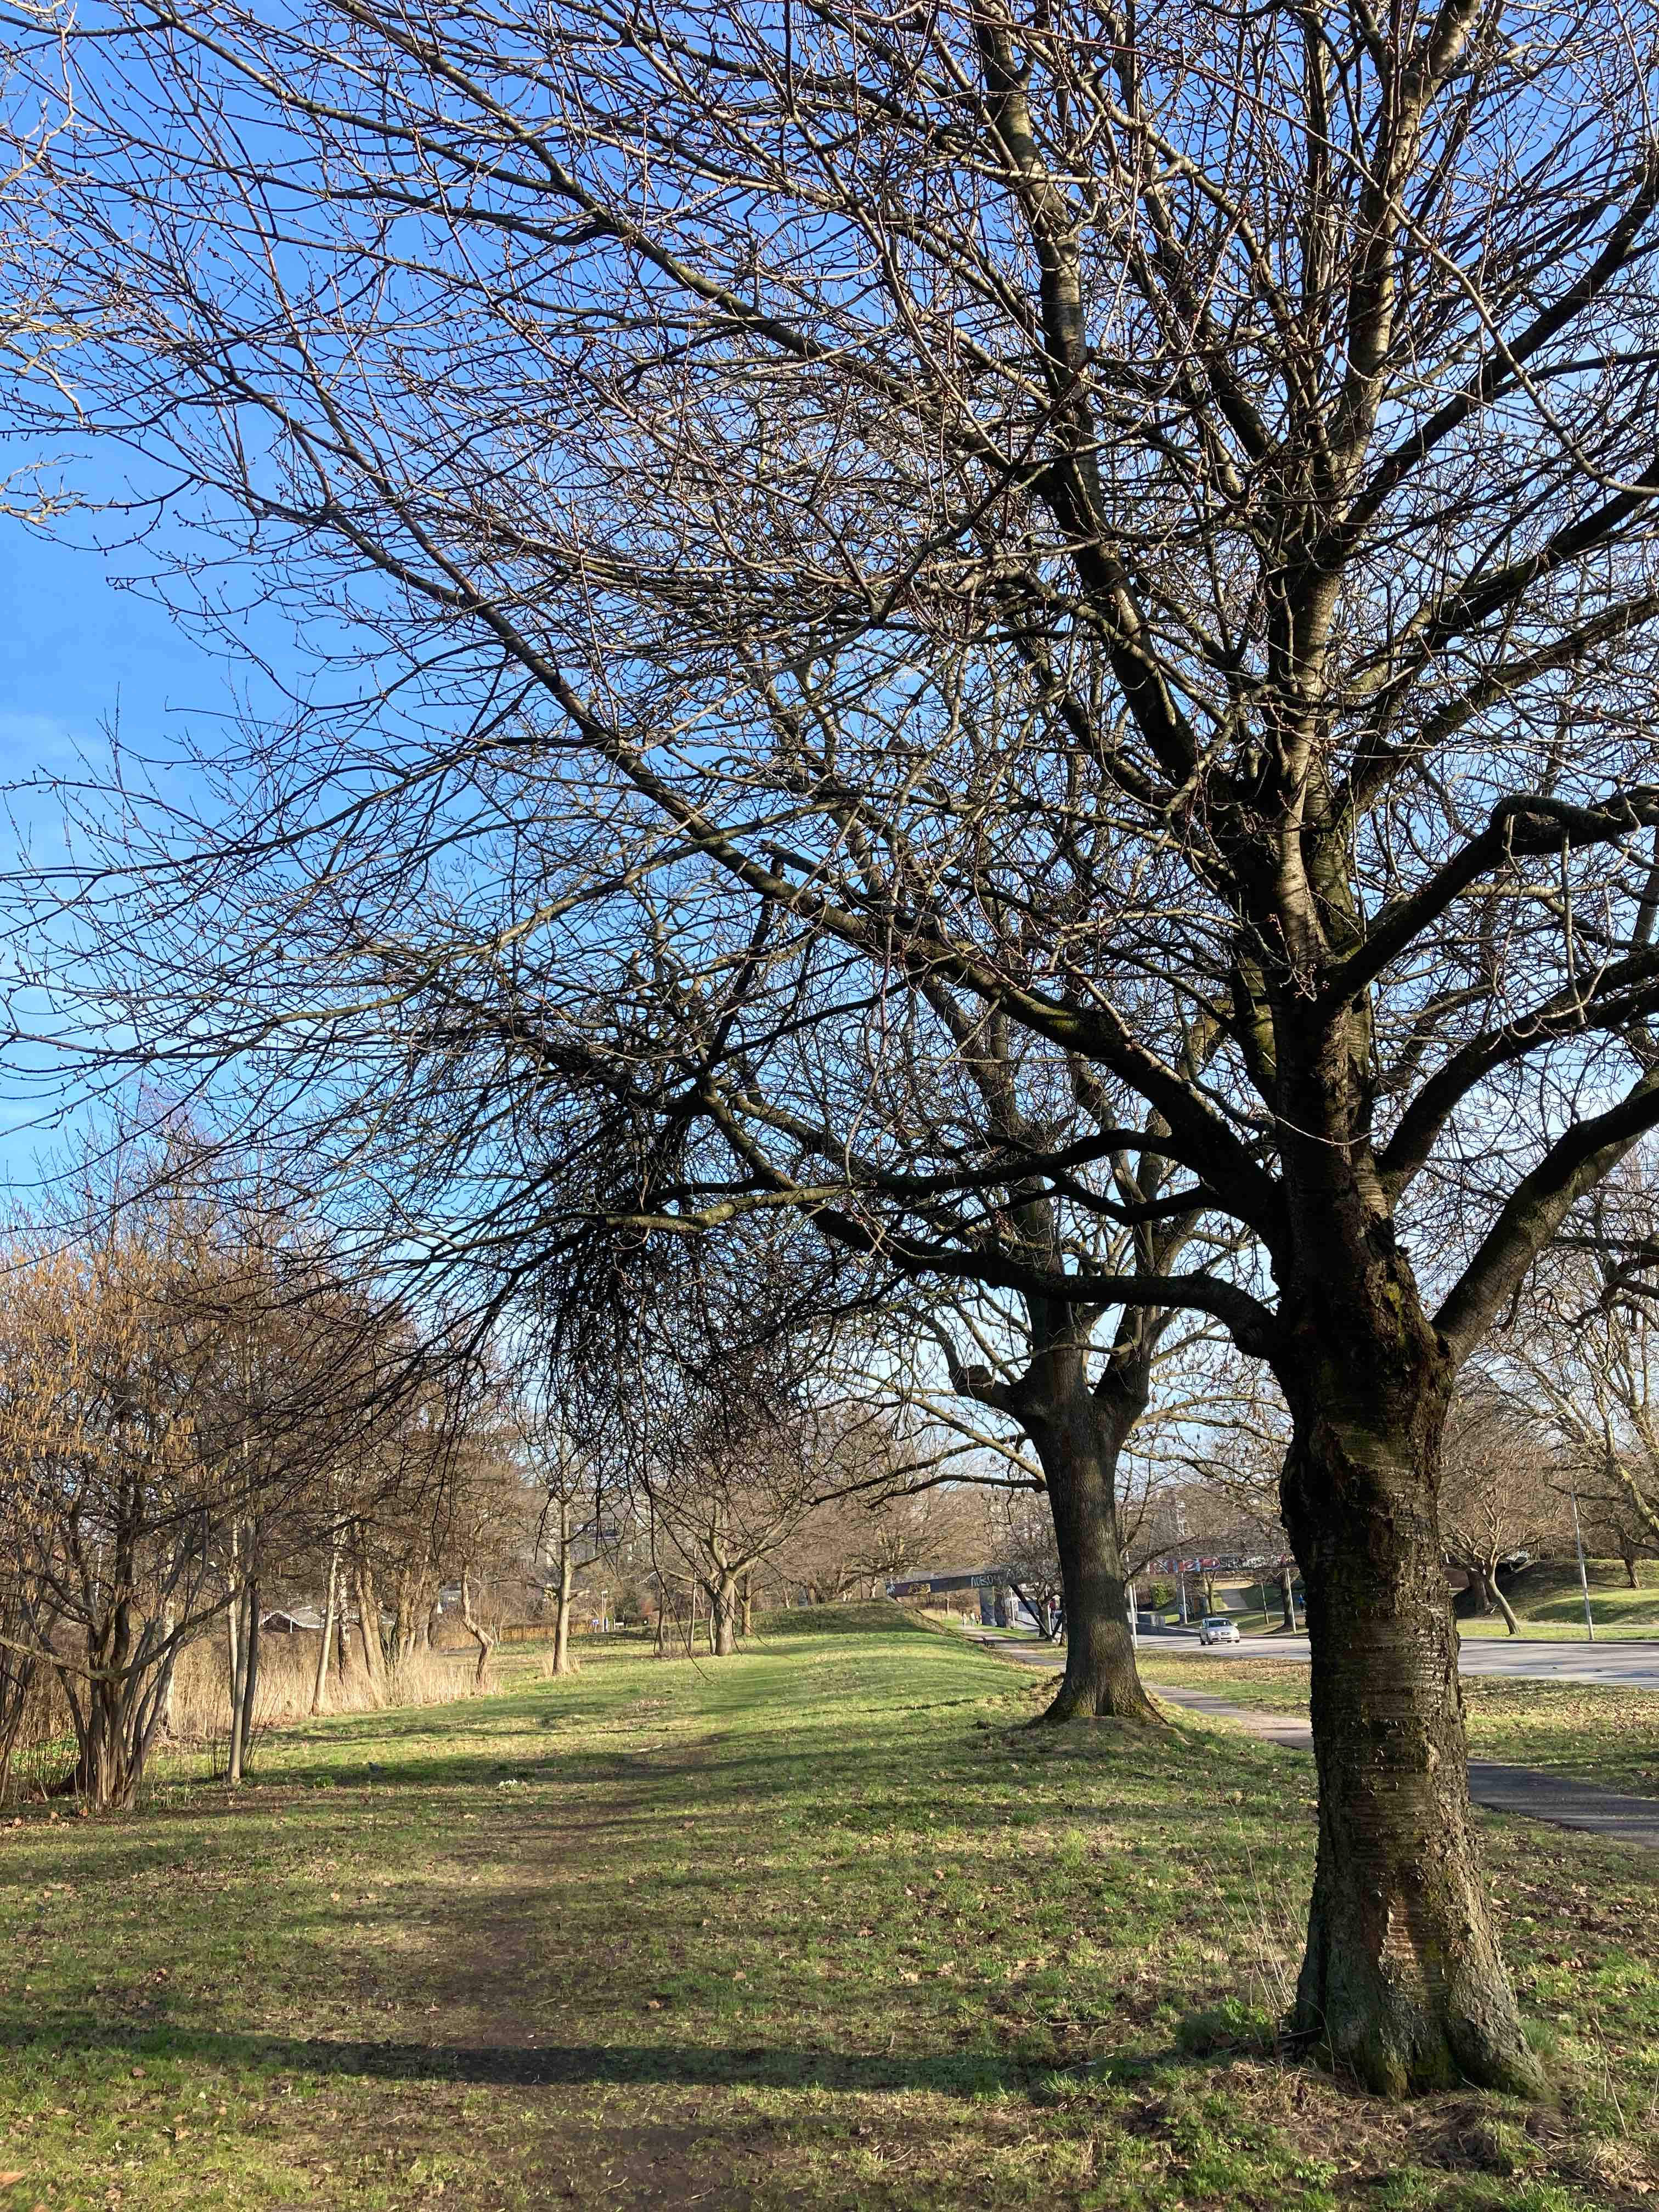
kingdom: Fungi
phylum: Ascomycota
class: Taphrinomycetes
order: Taphrinales
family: Taphrinaceae
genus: Taphrina
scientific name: Taphrina wiesneri
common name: Cherry leaf curl
